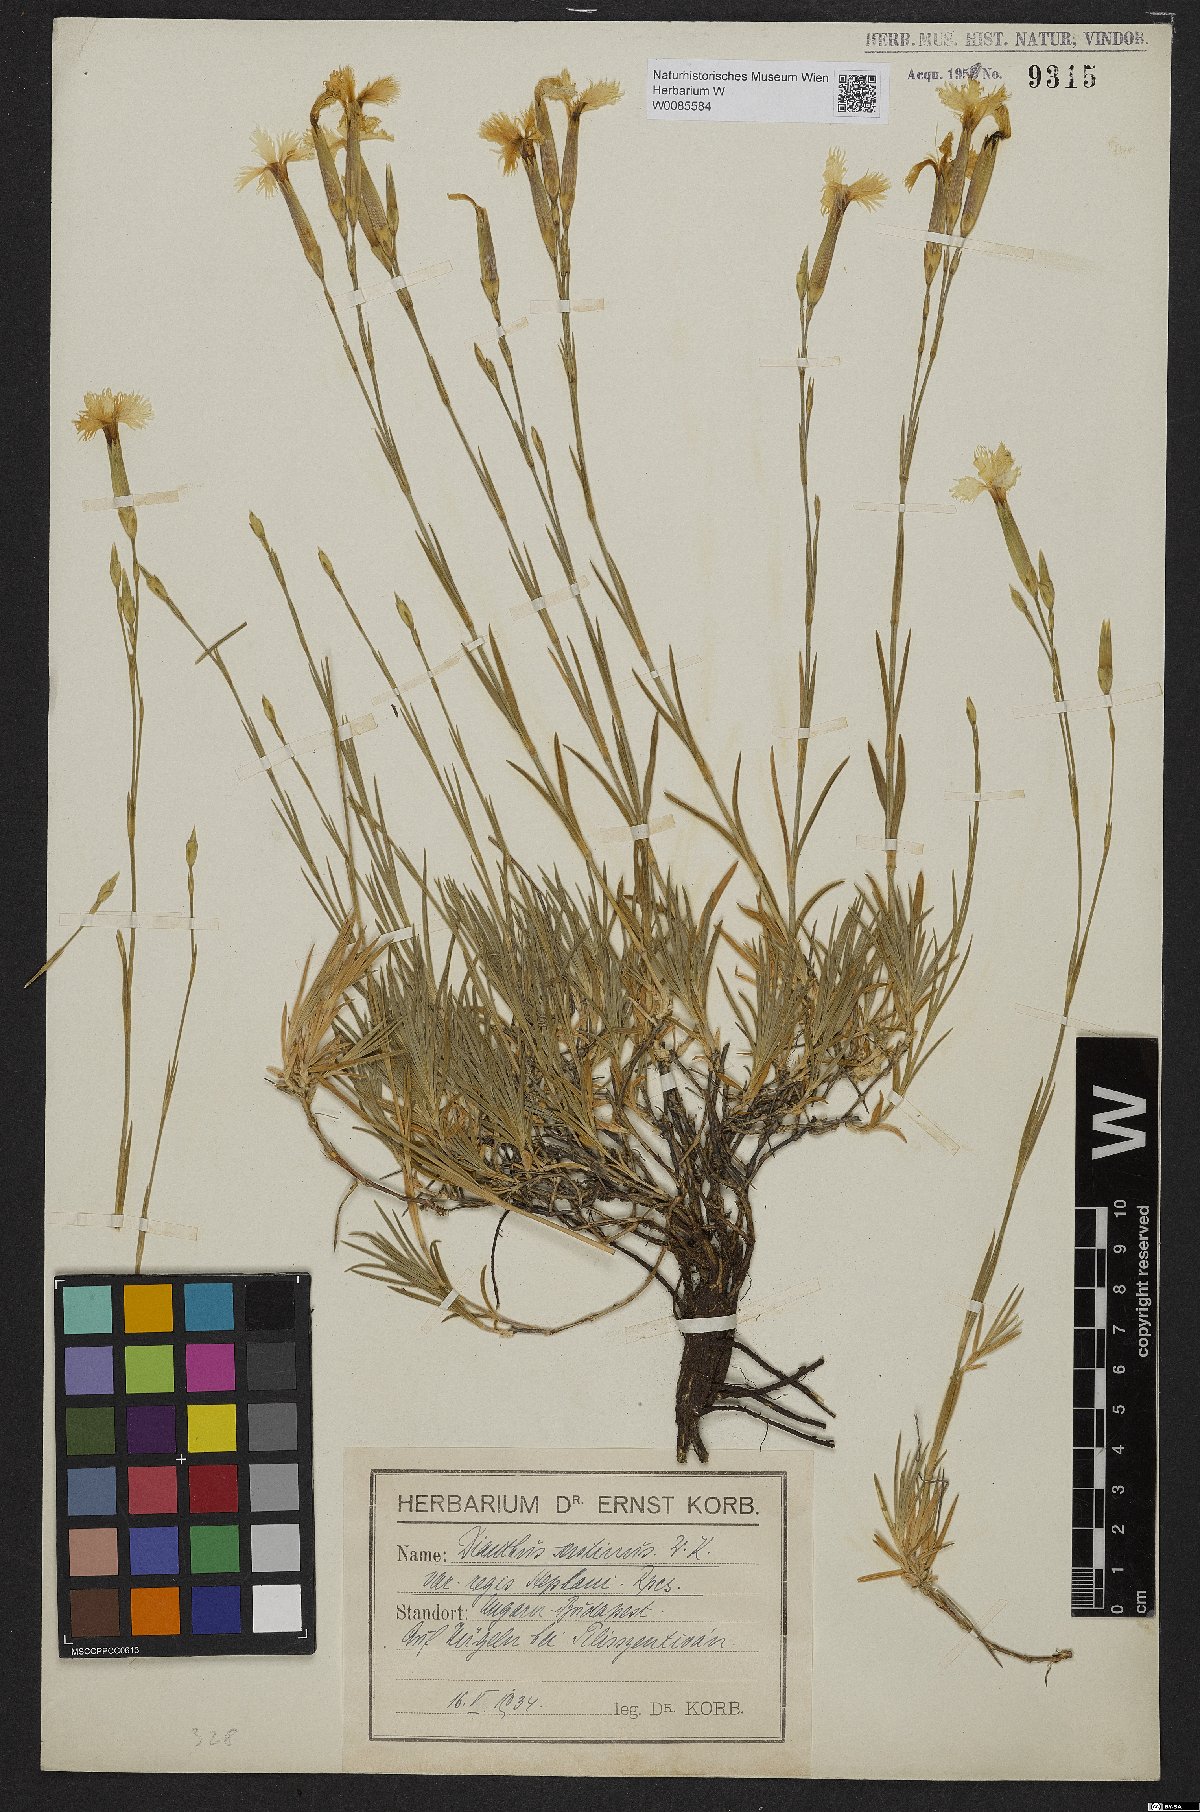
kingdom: Plantae
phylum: Tracheophyta
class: Magnoliopsida
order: Caryophyllales
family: Caryophyllaceae
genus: Dianthus
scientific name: Dianthus plumarius
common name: Pink
